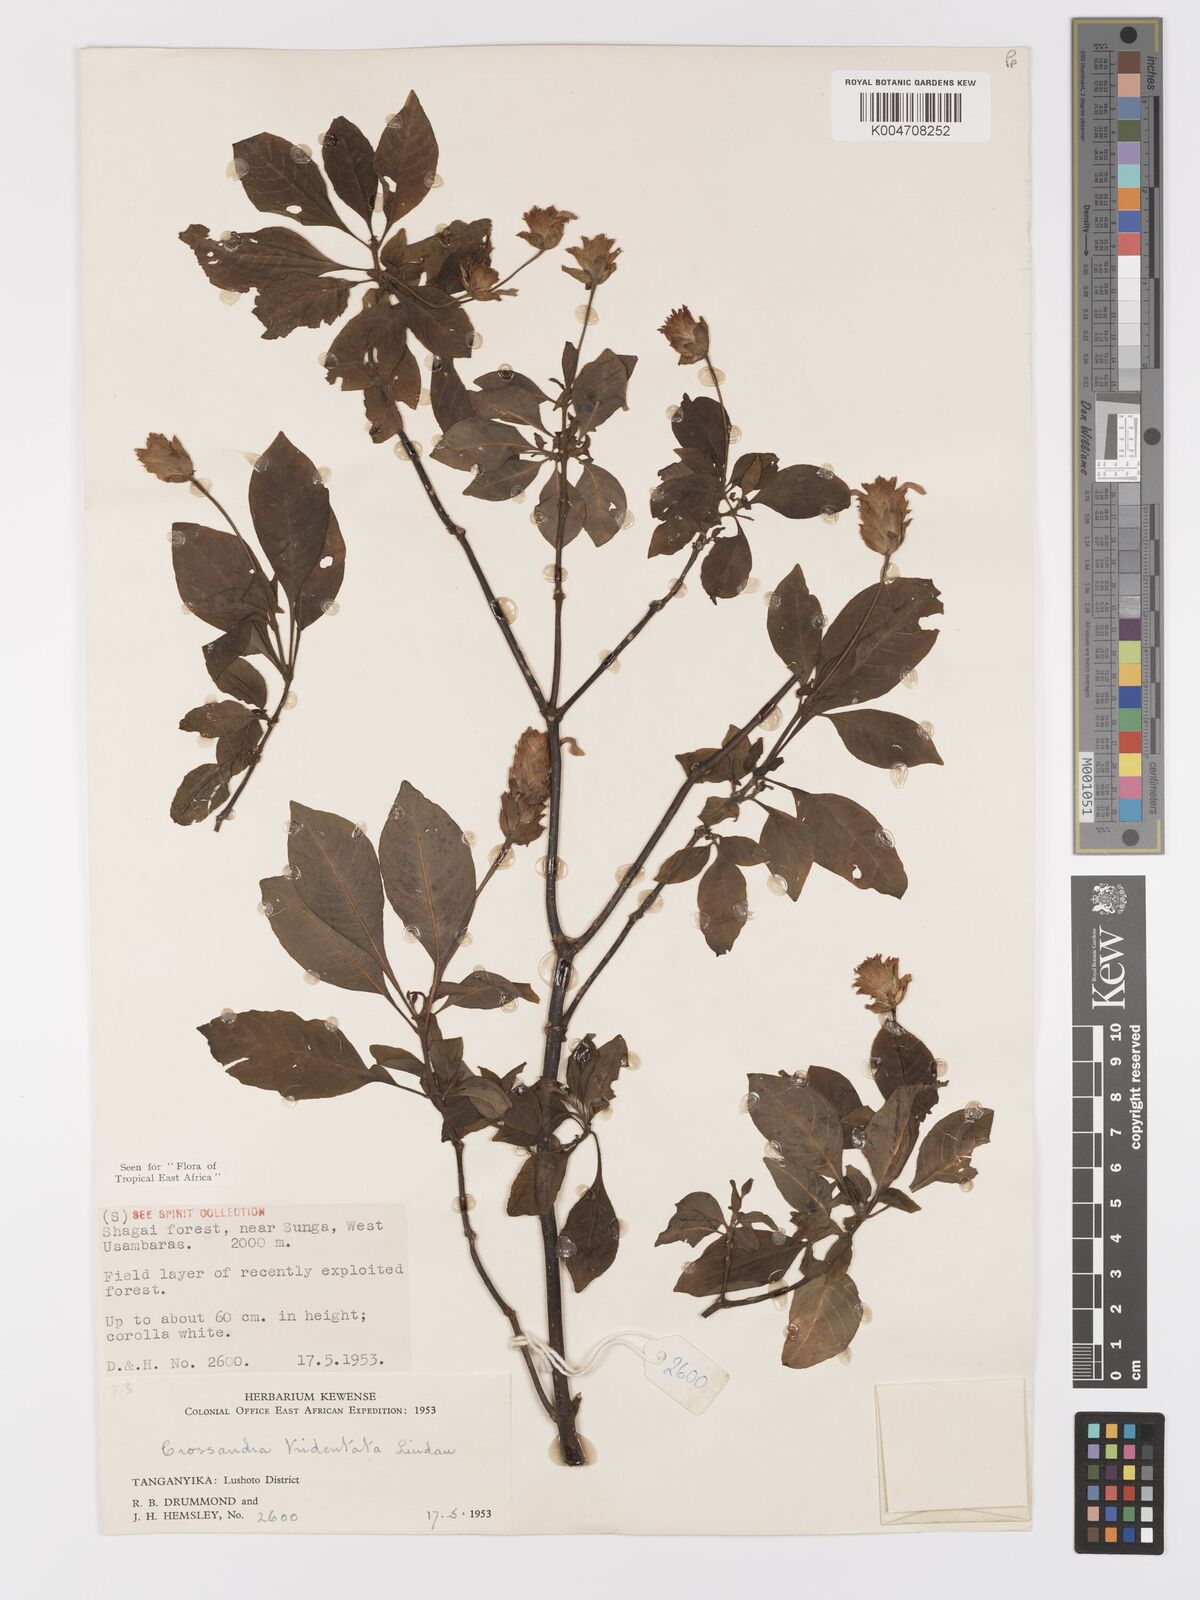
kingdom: Plantae
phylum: Tracheophyta
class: Magnoliopsida
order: Lamiales
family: Acanthaceae
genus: Crossandra
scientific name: Crossandra tridentata
